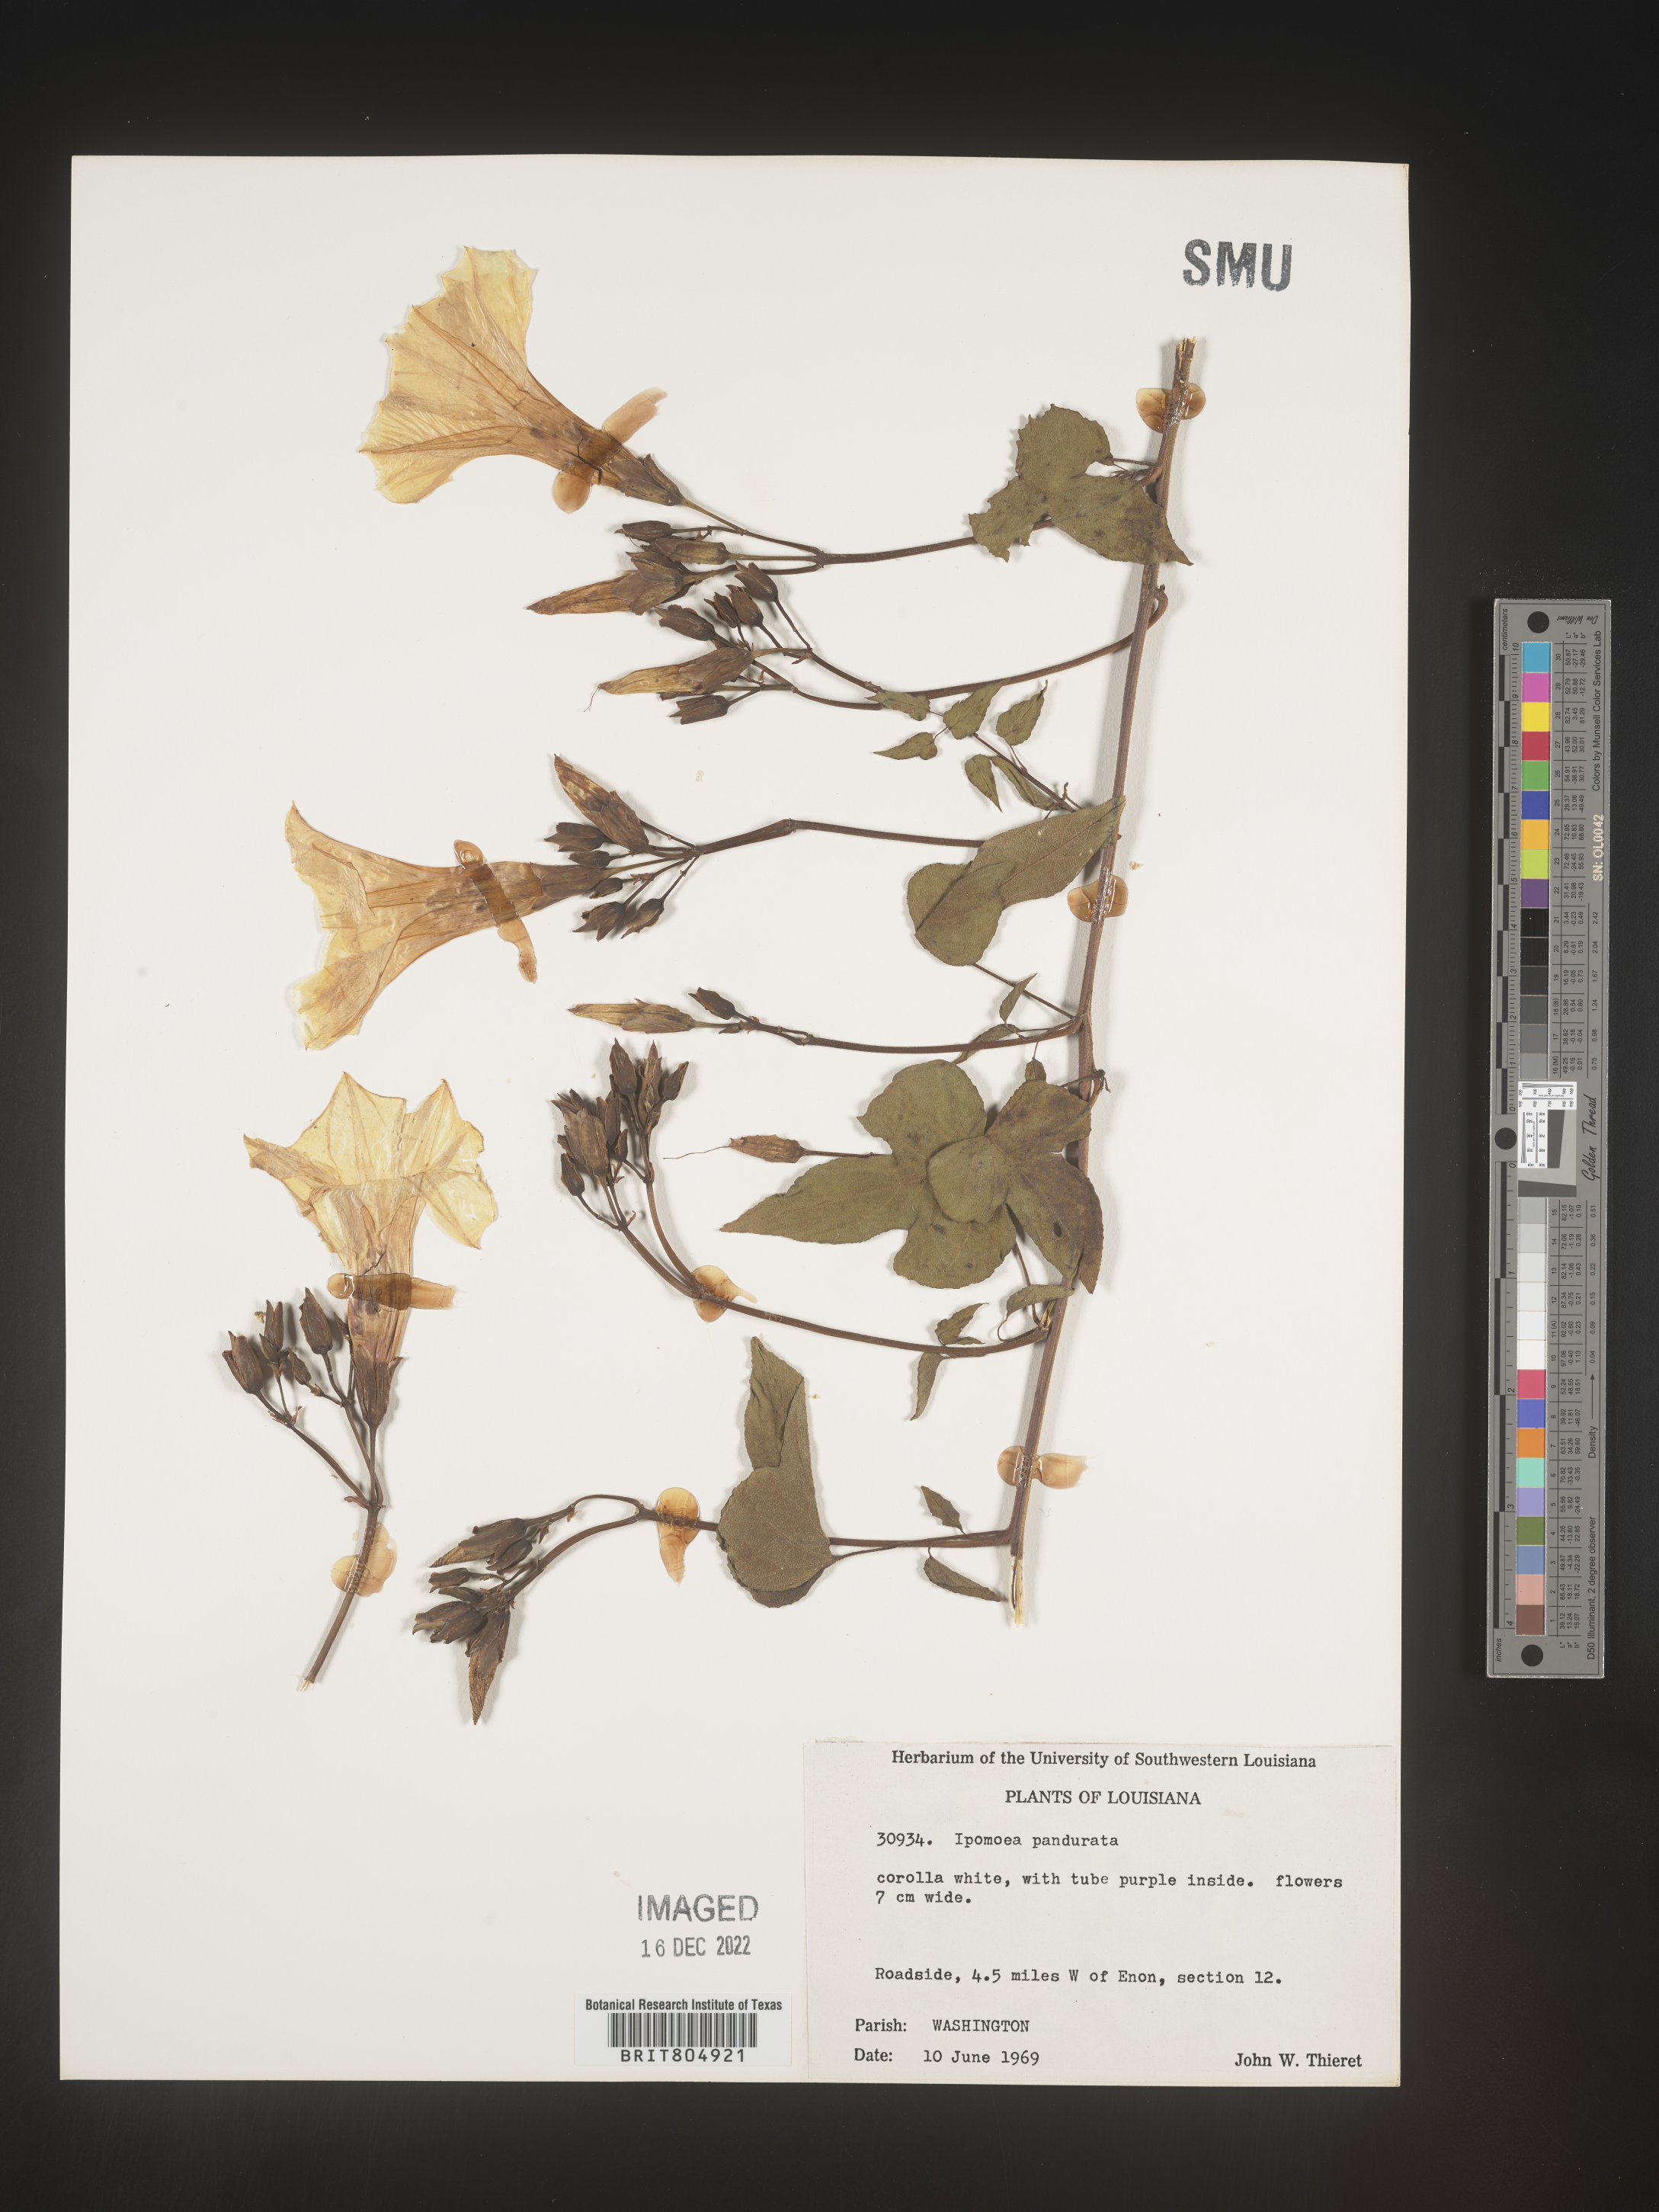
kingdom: Plantae
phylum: Tracheophyta
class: Magnoliopsida
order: Solanales
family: Convolvulaceae
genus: Ipomoea
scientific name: Ipomoea pandurata
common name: Man-of-the-earth
